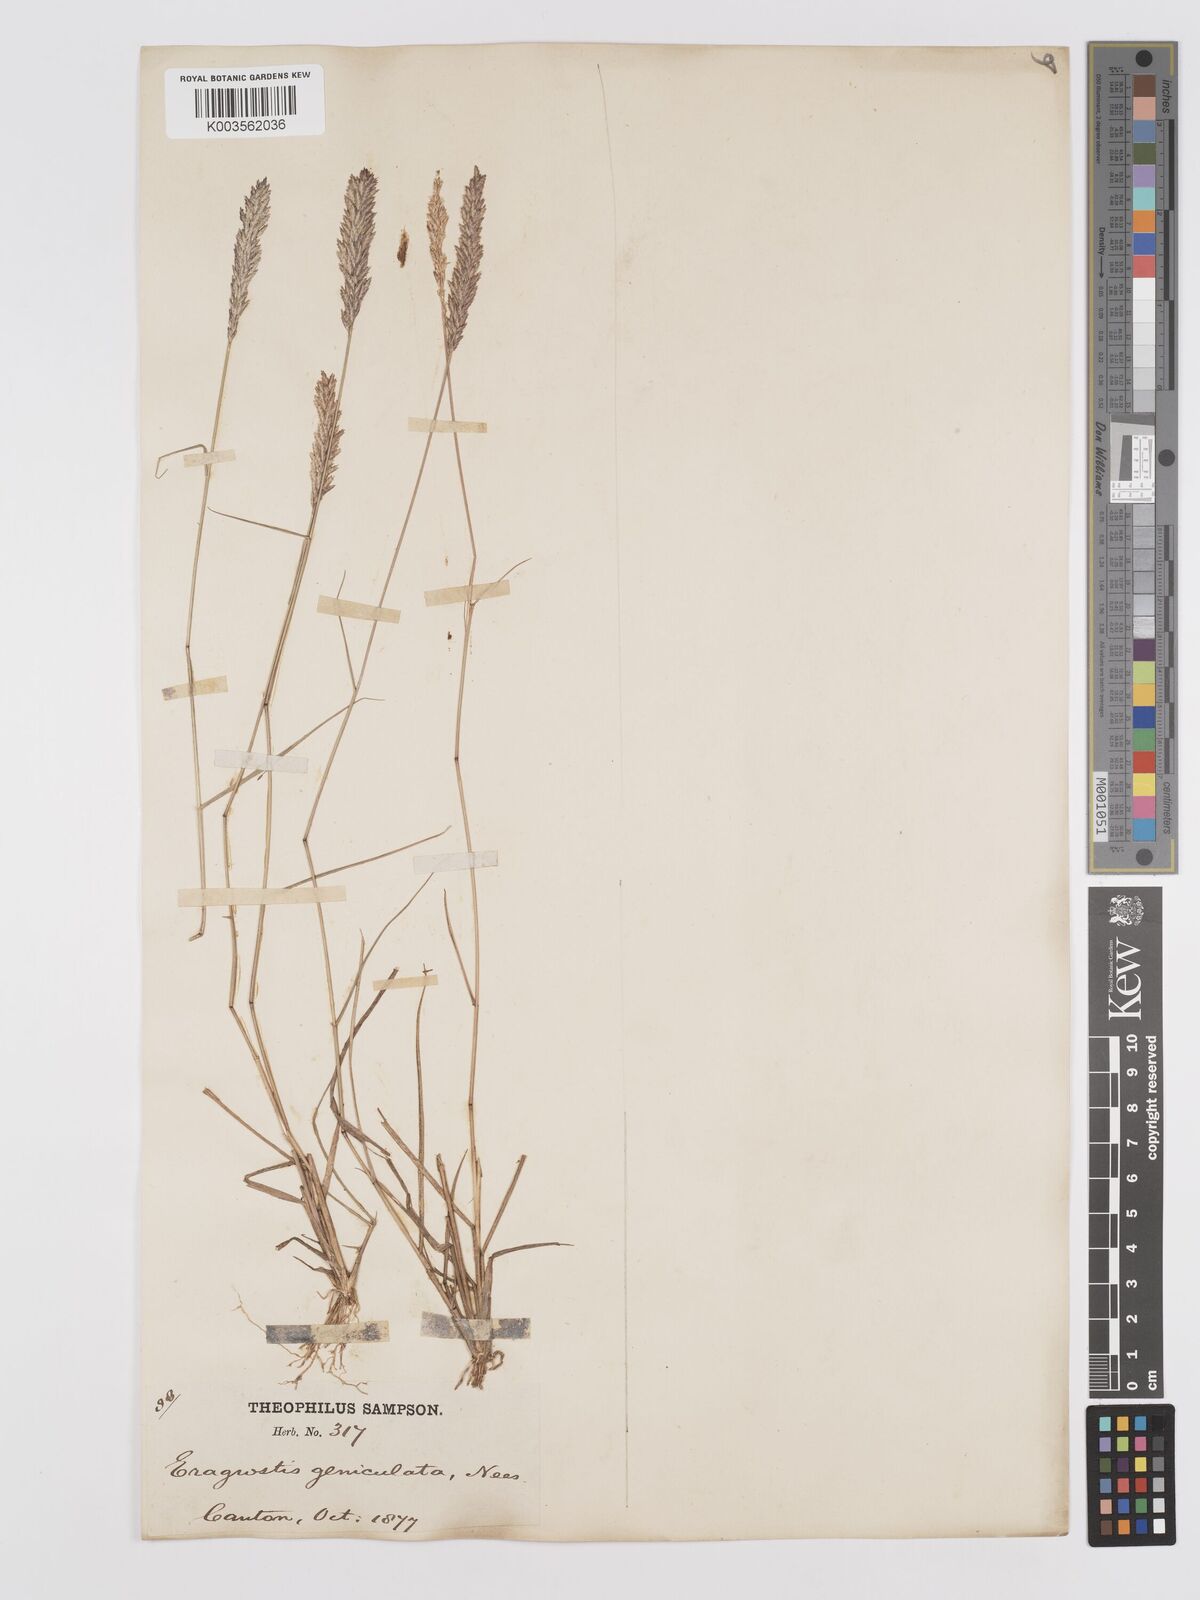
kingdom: Plantae
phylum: Tracheophyta
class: Liliopsida
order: Poales
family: Poaceae
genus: Eragrostis
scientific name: Eragrostis cylindrica
